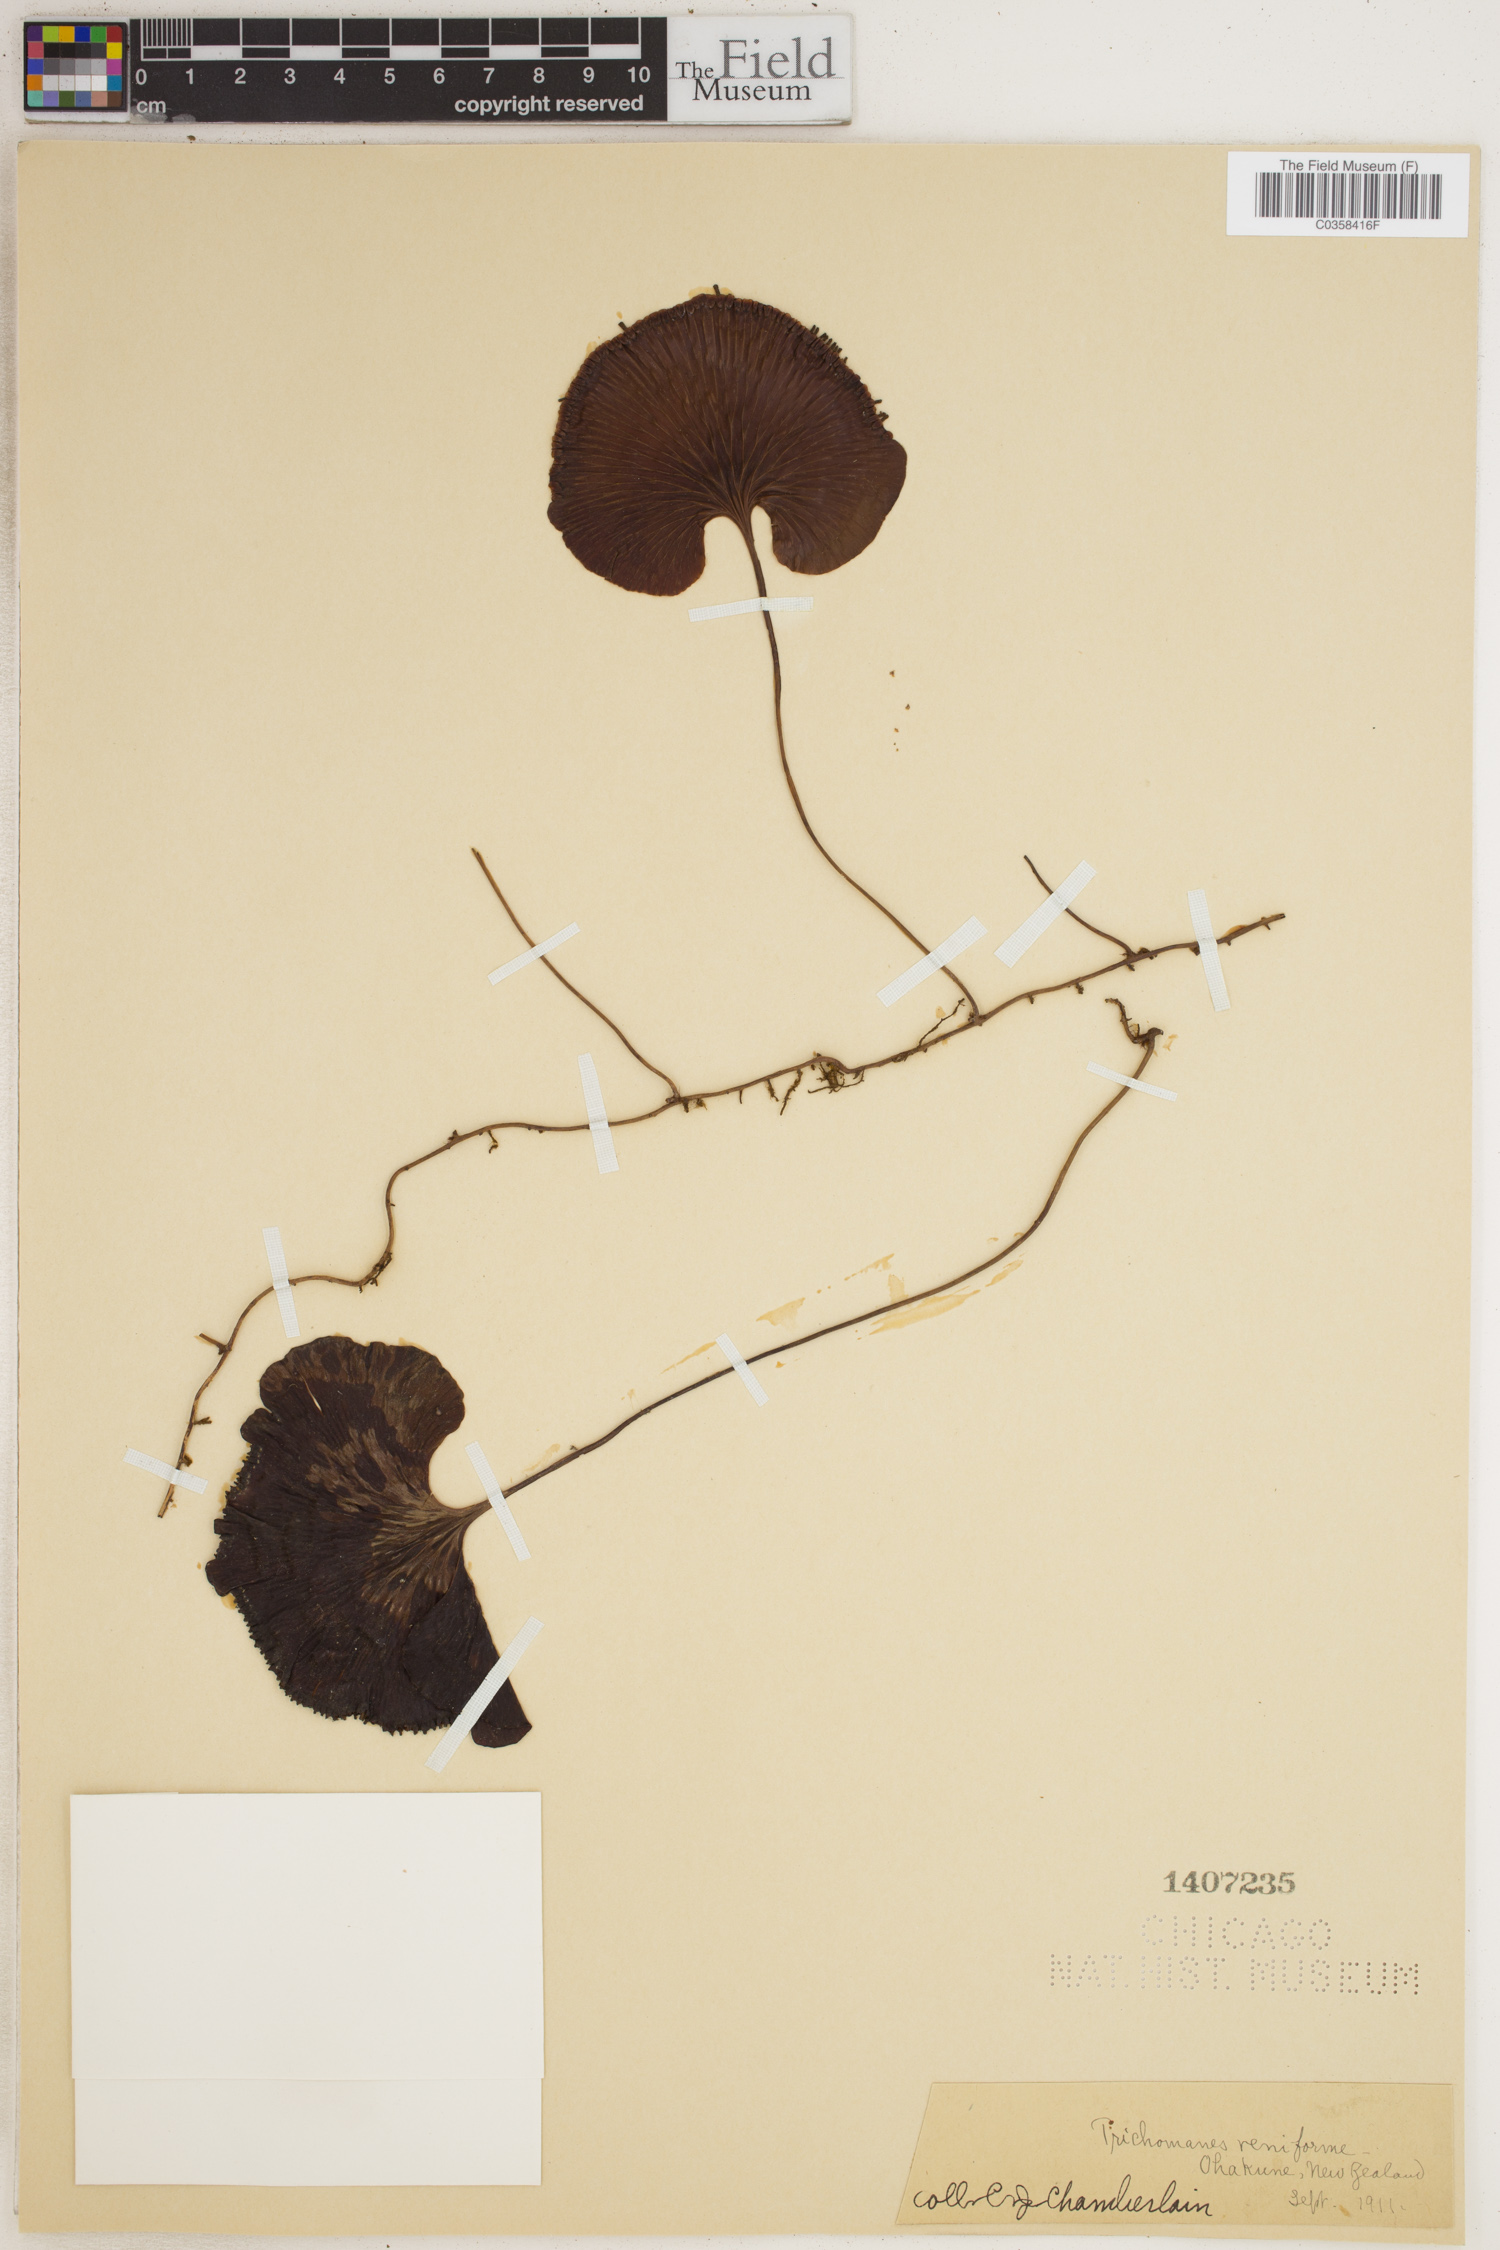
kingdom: Plantae
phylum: Tracheophyta
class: Polypodiopsida
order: Hymenophyllales
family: Hymenophyllaceae
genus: Hymenophyllum
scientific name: Hymenophyllum nephrophyllum
